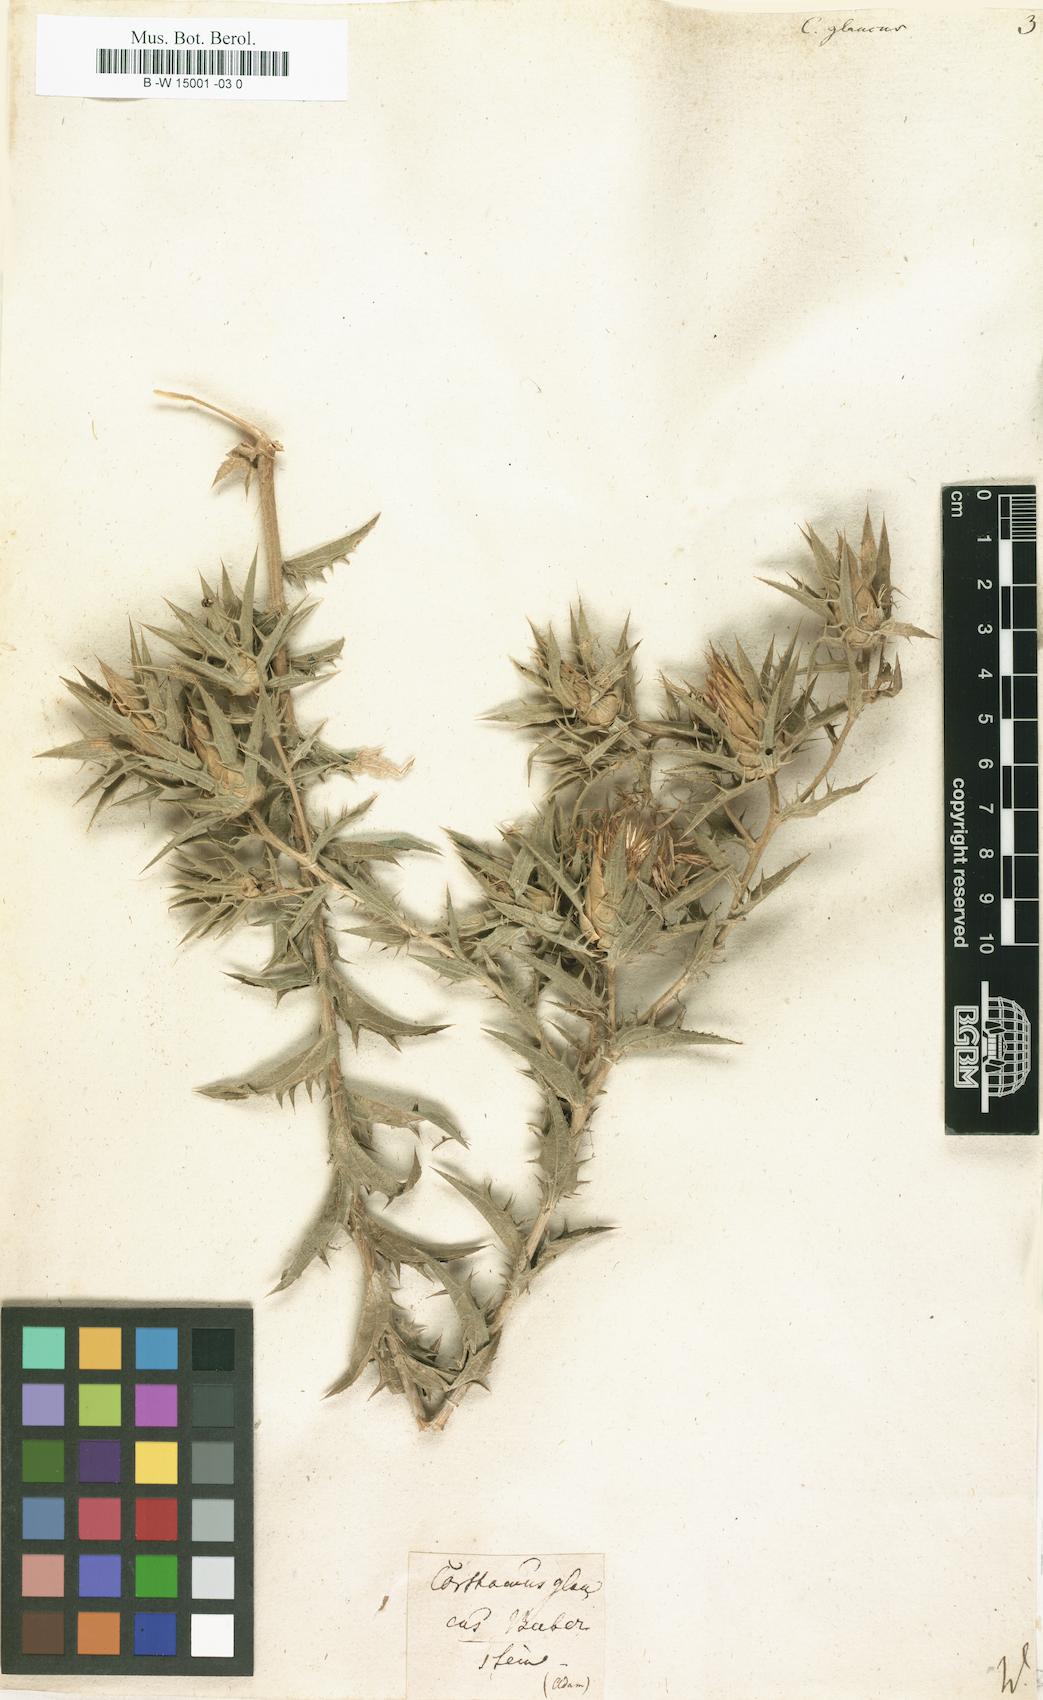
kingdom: Plantae
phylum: Tracheophyta
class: Magnoliopsida
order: Asterales
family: Asteraceae
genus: Carthamus
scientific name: Carthamus glaucus
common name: Mediterranean thistle
